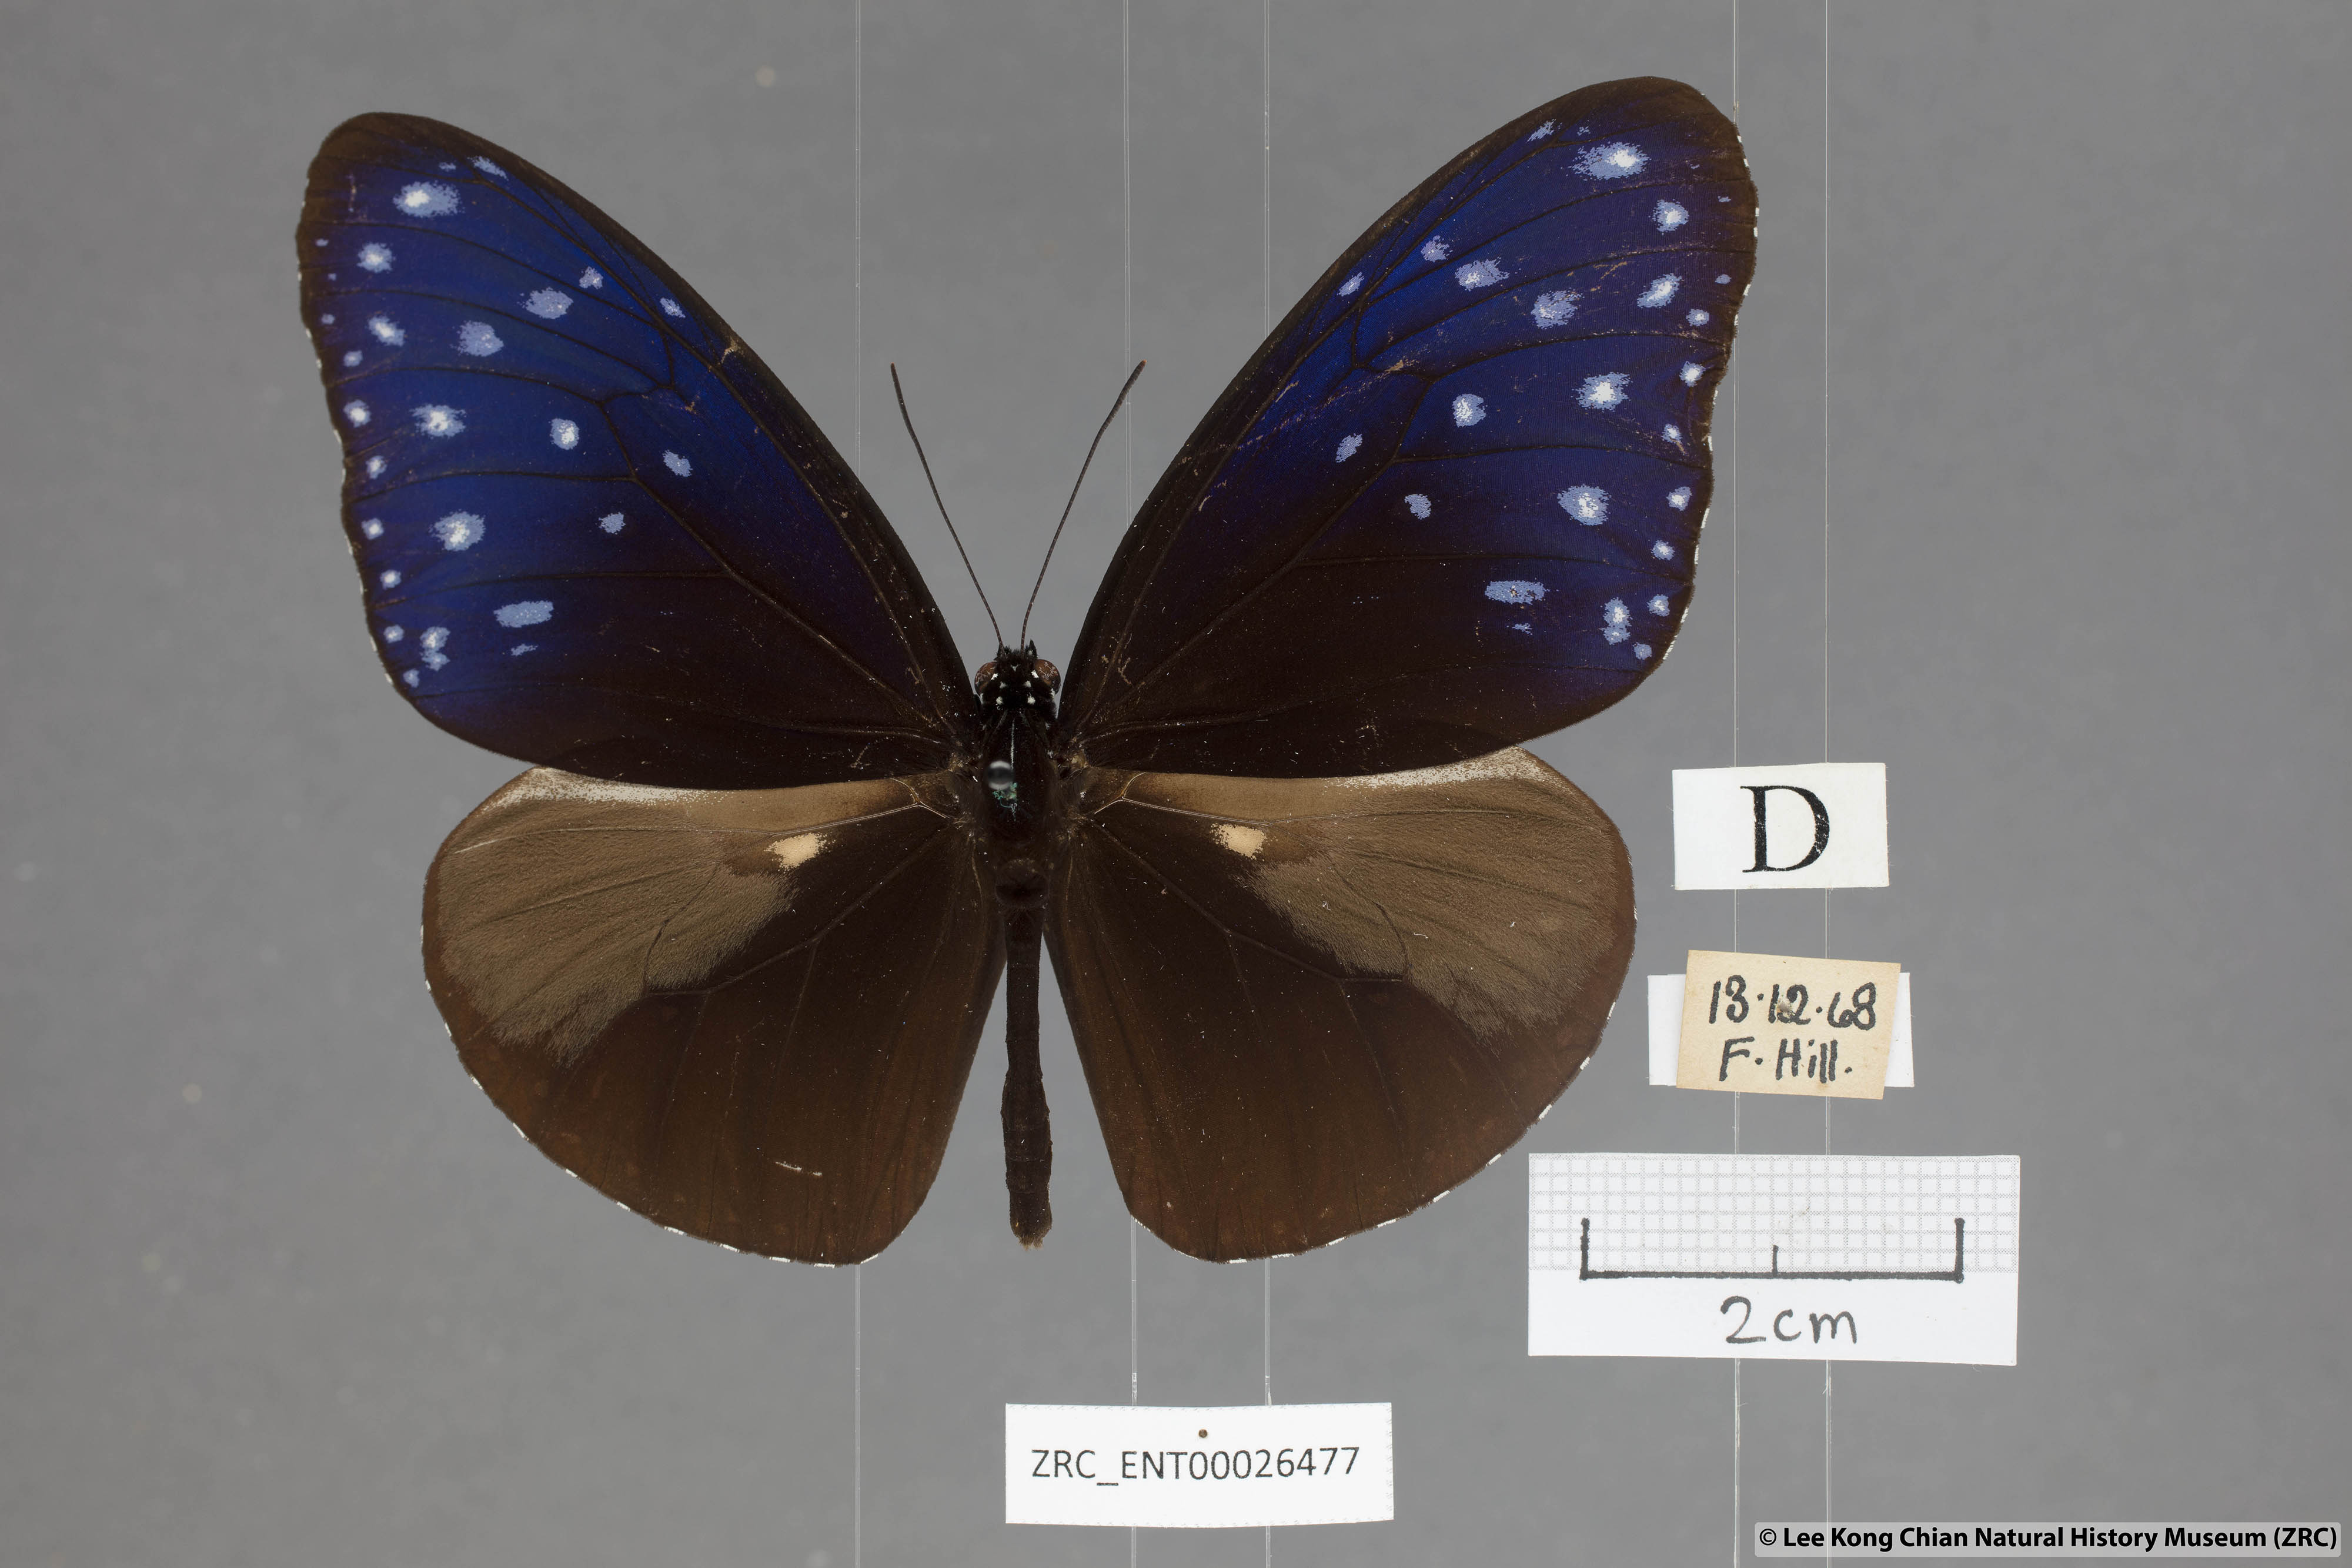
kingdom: Animalia
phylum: Arthropoda
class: Insecta
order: Lepidoptera
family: Nymphalidae
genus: Euploea
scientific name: Euploea mulciber
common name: Striped blue crow butterfly
